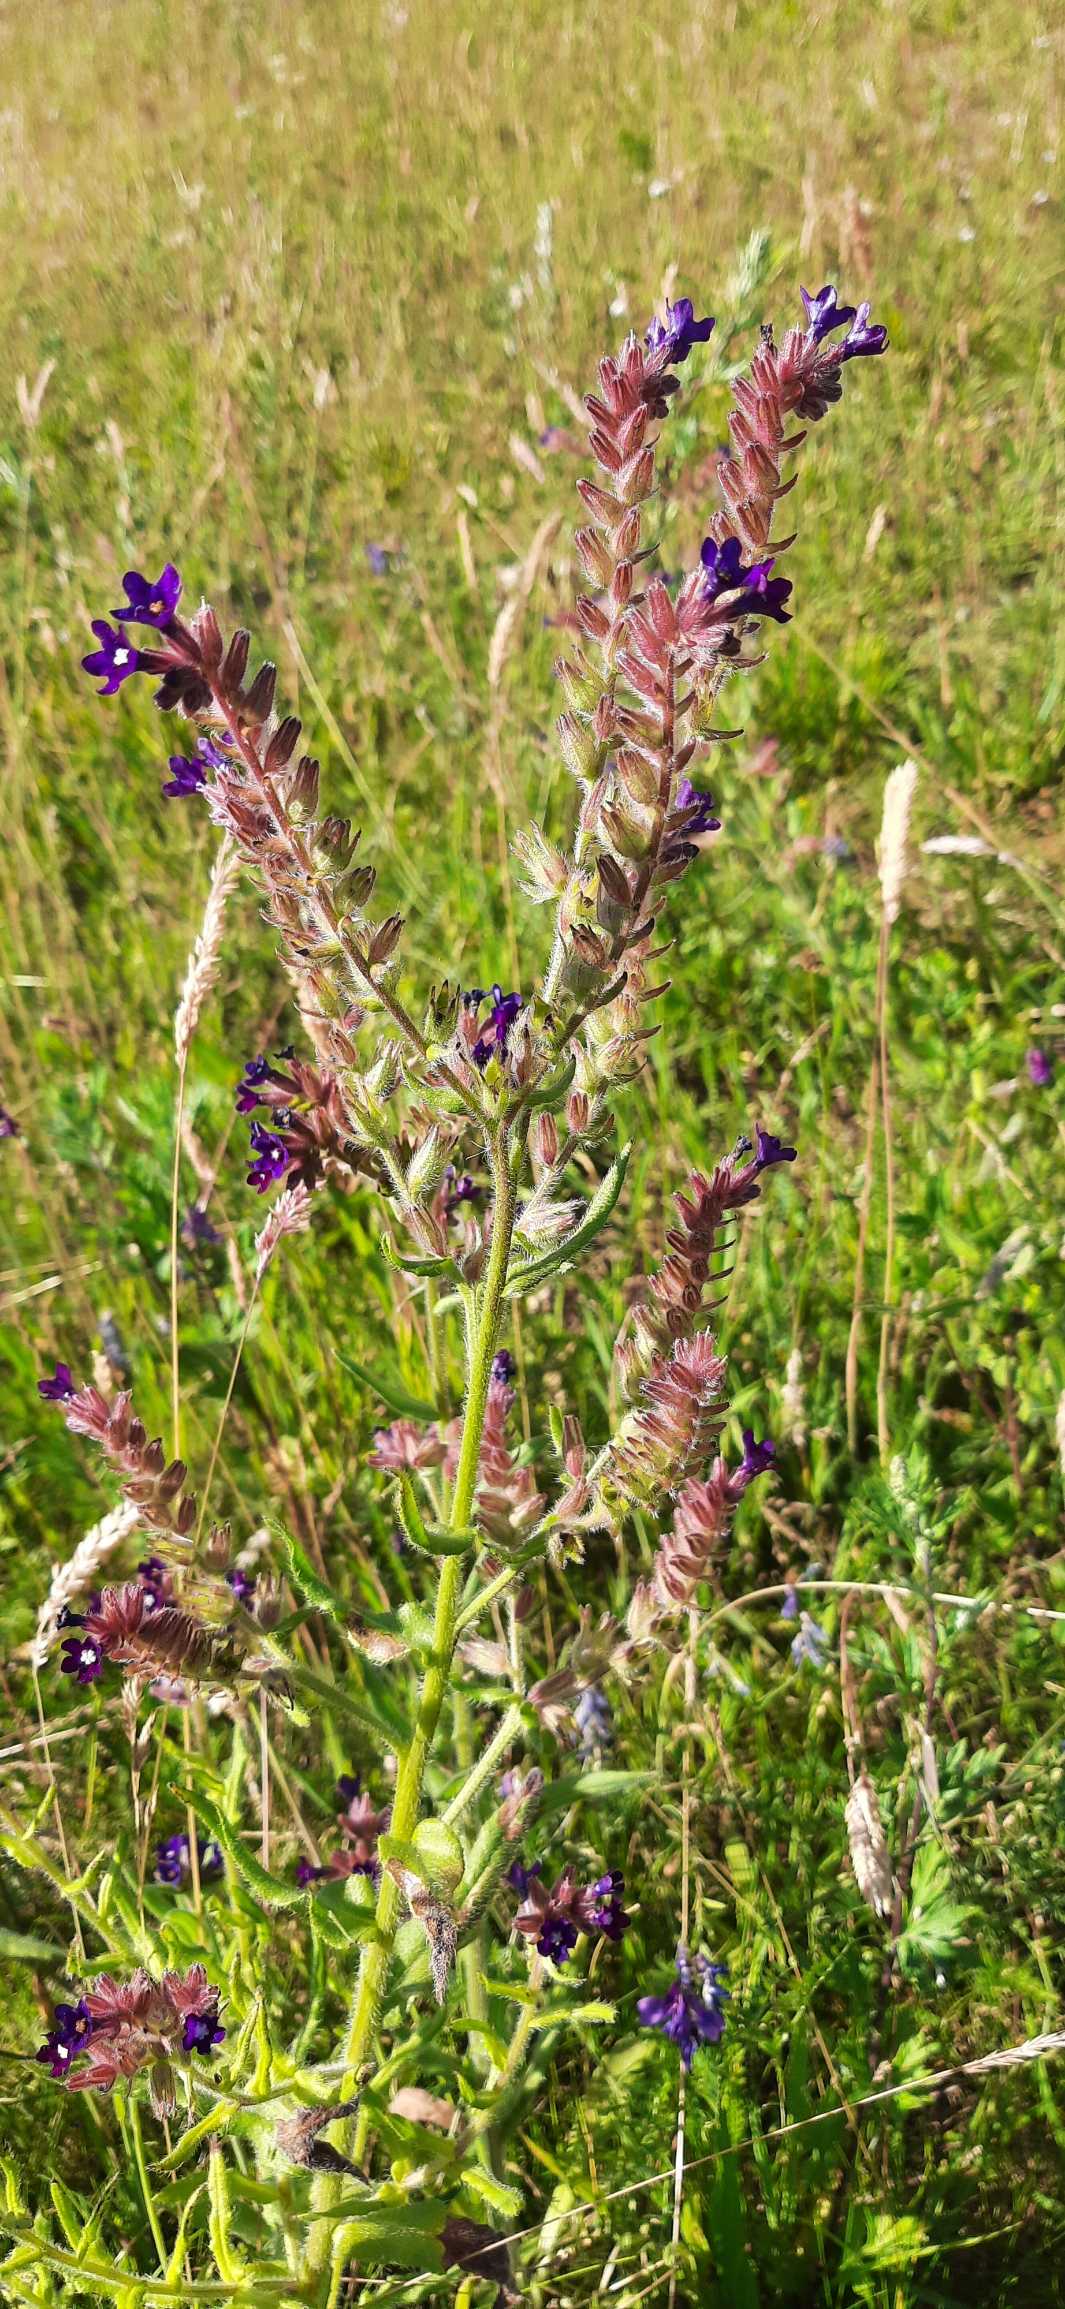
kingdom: Plantae
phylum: Tracheophyta
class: Magnoliopsida
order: Boraginales
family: Boraginaceae
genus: Anchusa
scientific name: Anchusa officinalis
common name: Læge-oksetunge
